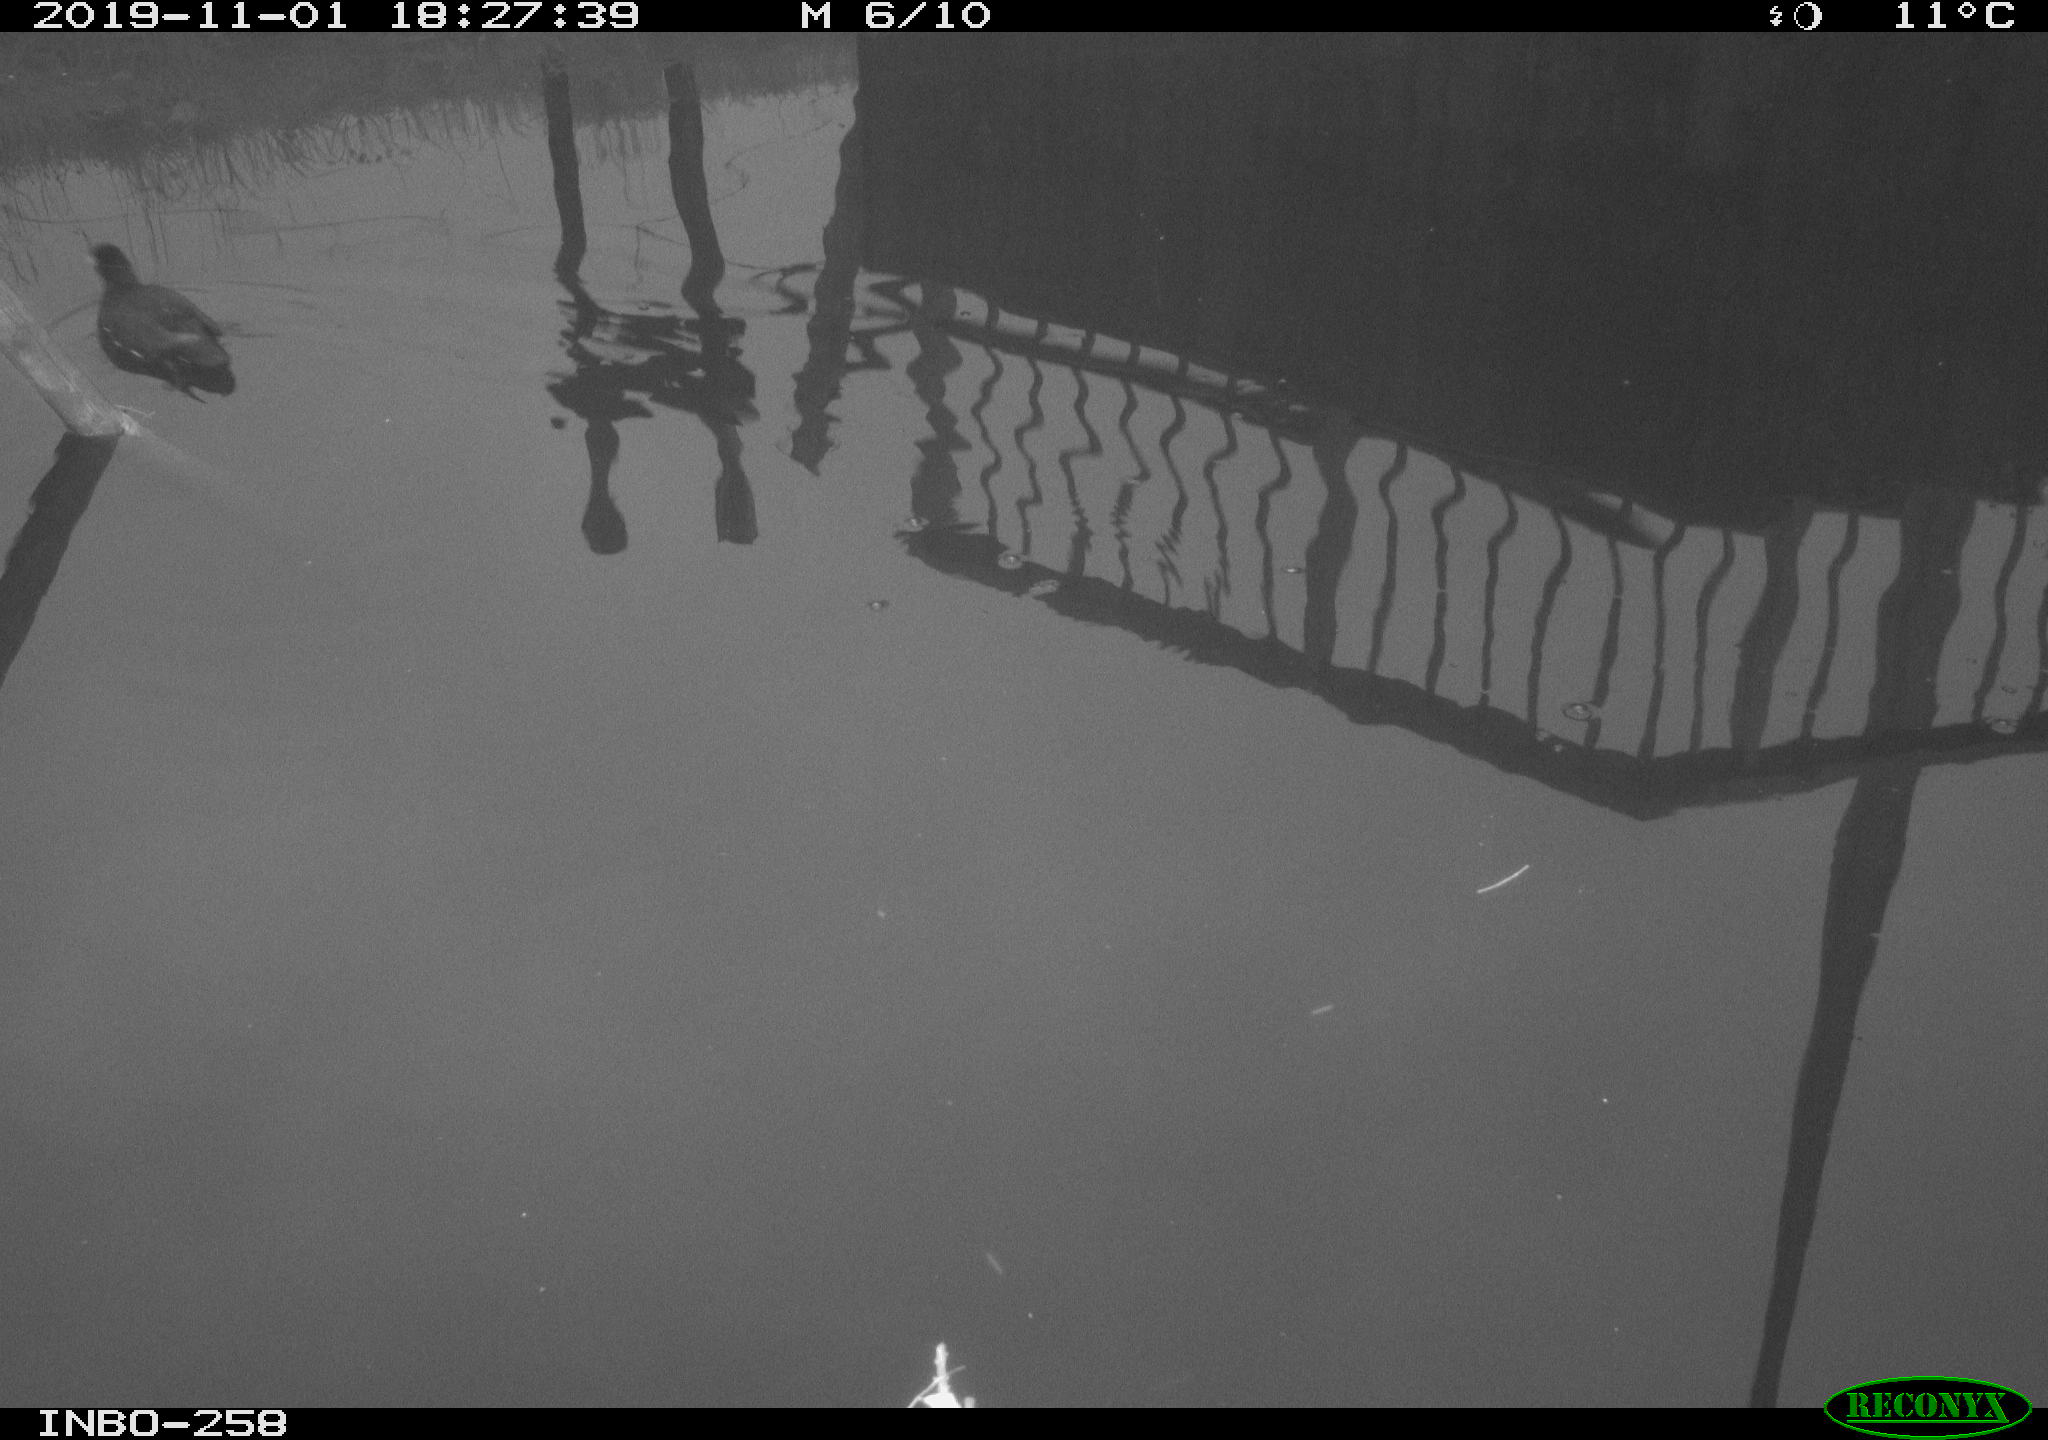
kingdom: Animalia
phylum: Chordata
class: Aves
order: Gruiformes
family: Rallidae
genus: Gallinula
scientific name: Gallinula chloropus
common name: Common moorhen
